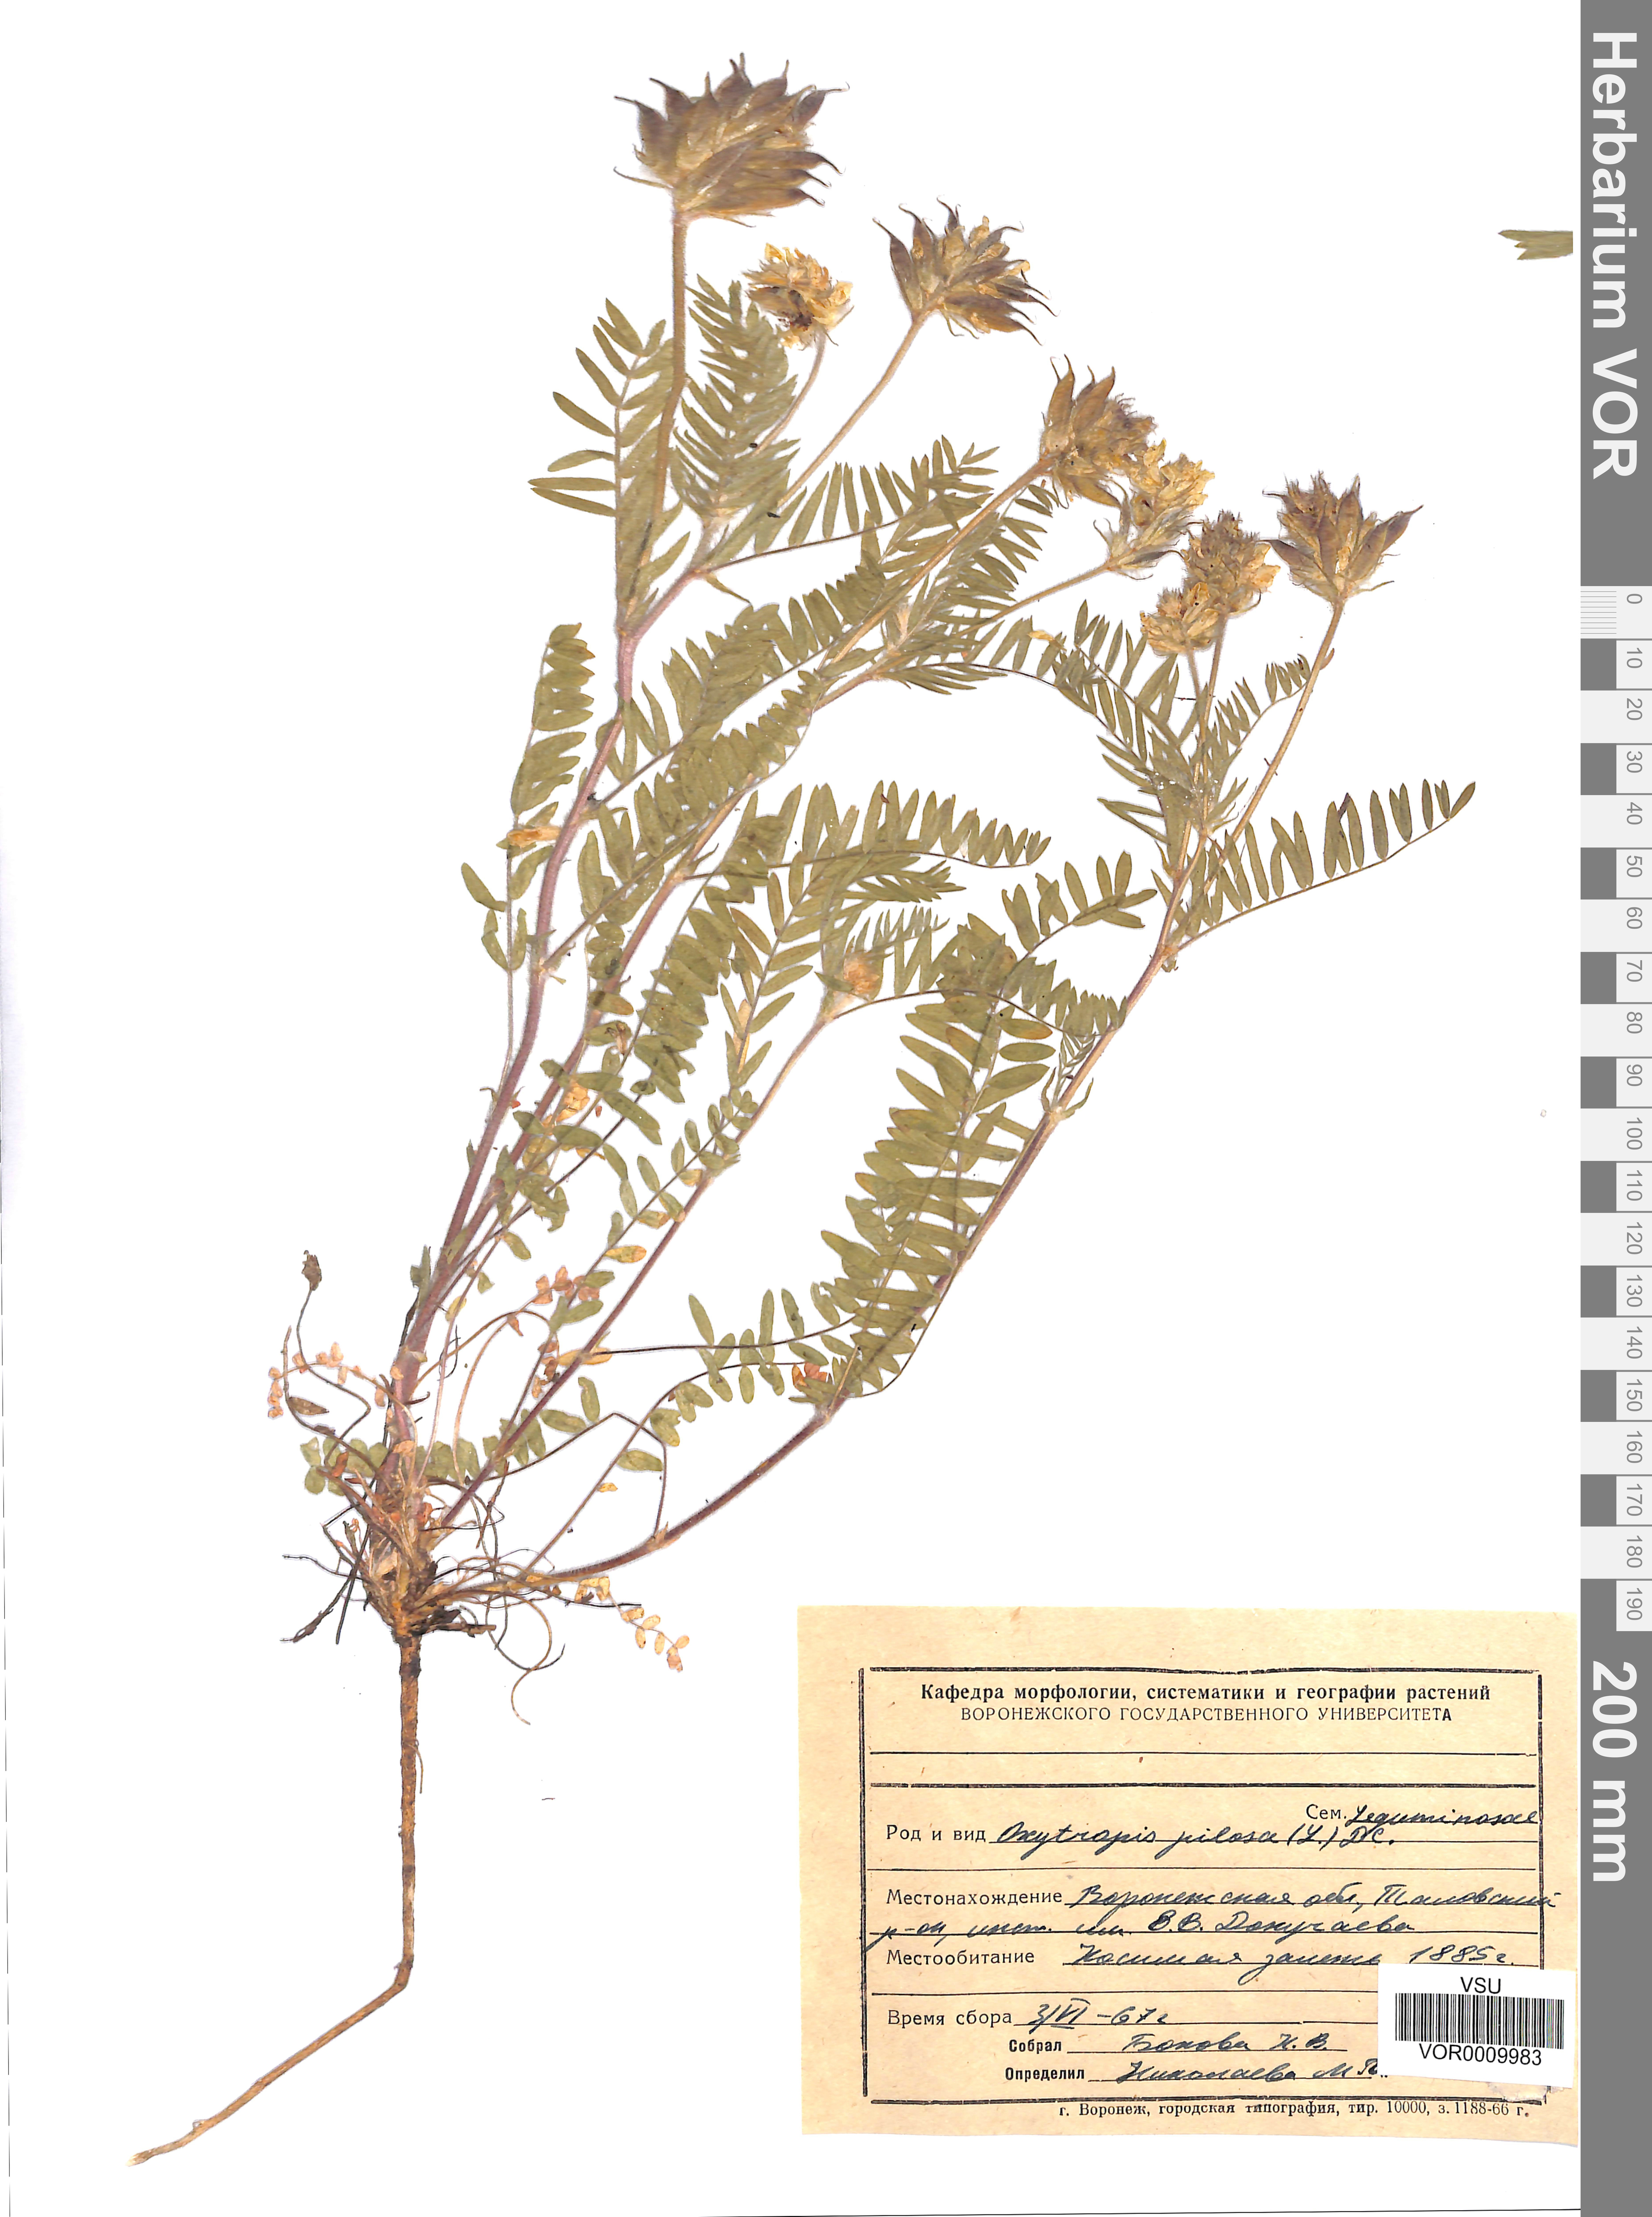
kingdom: Plantae
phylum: Tracheophyta
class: Magnoliopsida
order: Fabales
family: Fabaceae
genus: Oxytropis
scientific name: Oxytropis pilosa
